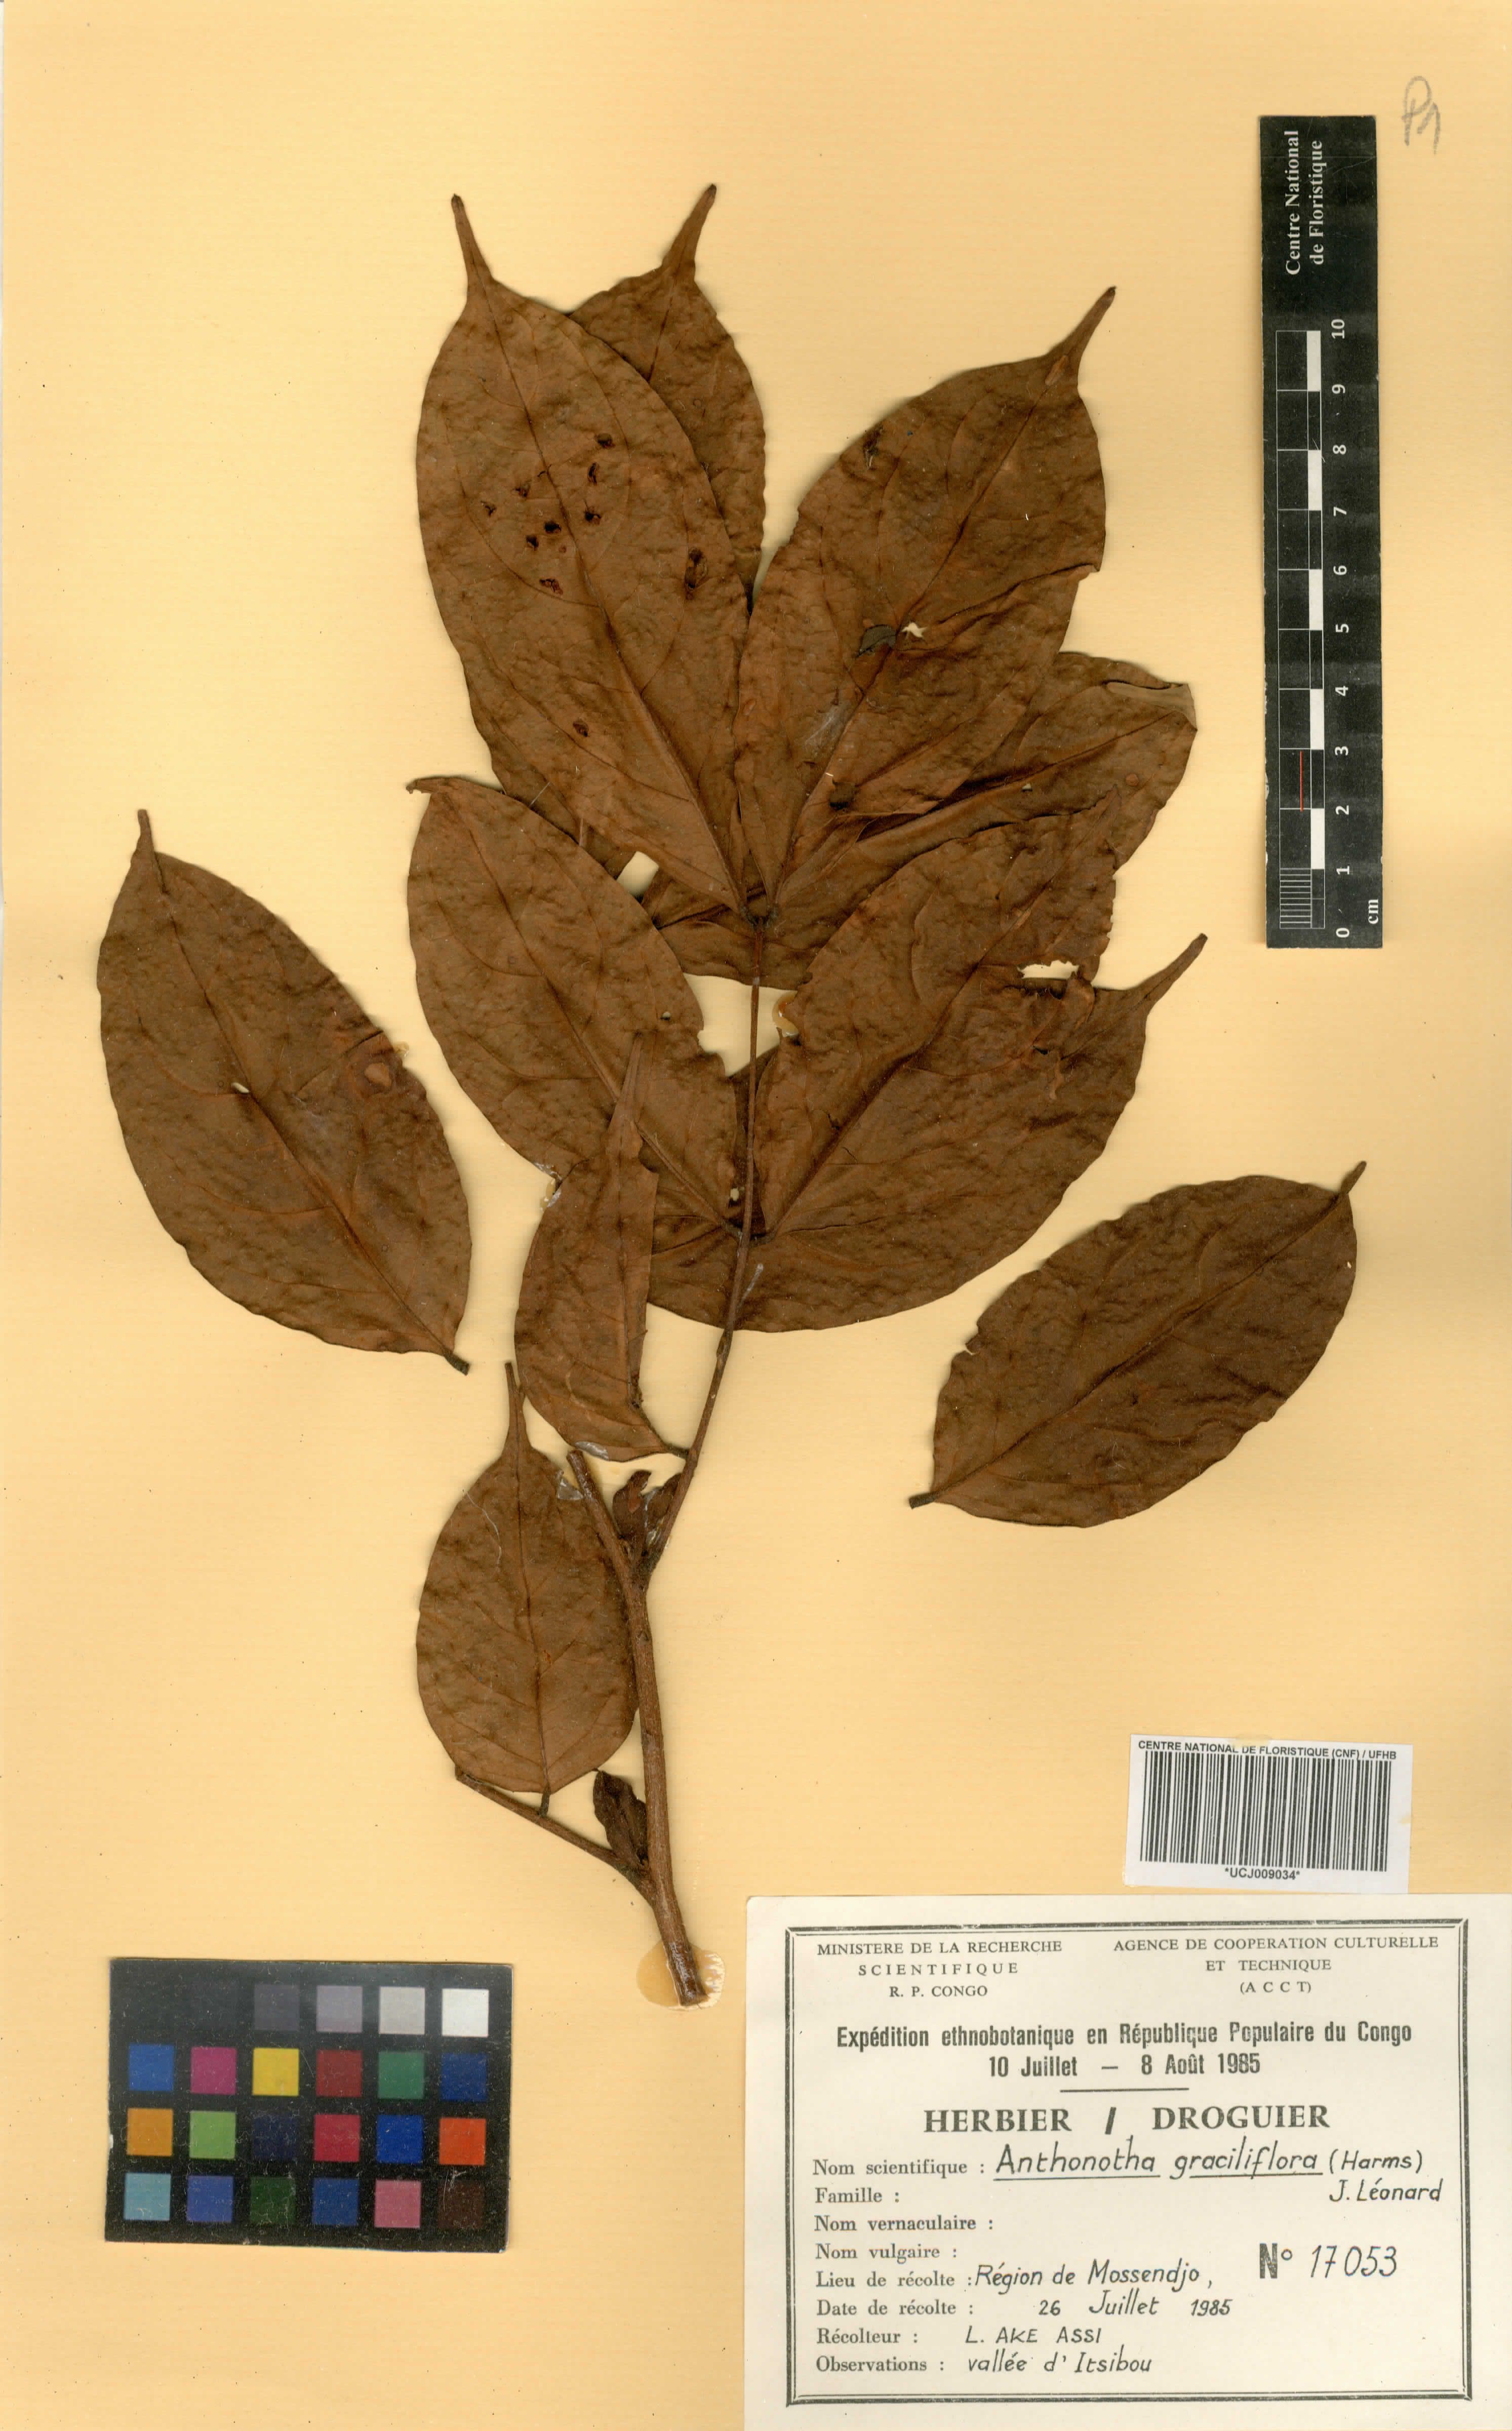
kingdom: Plantae
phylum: Tracheophyta
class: Magnoliopsida
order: Fabales
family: Fabaceae
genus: Englerodendron
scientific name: Englerodendron graciliflorum
